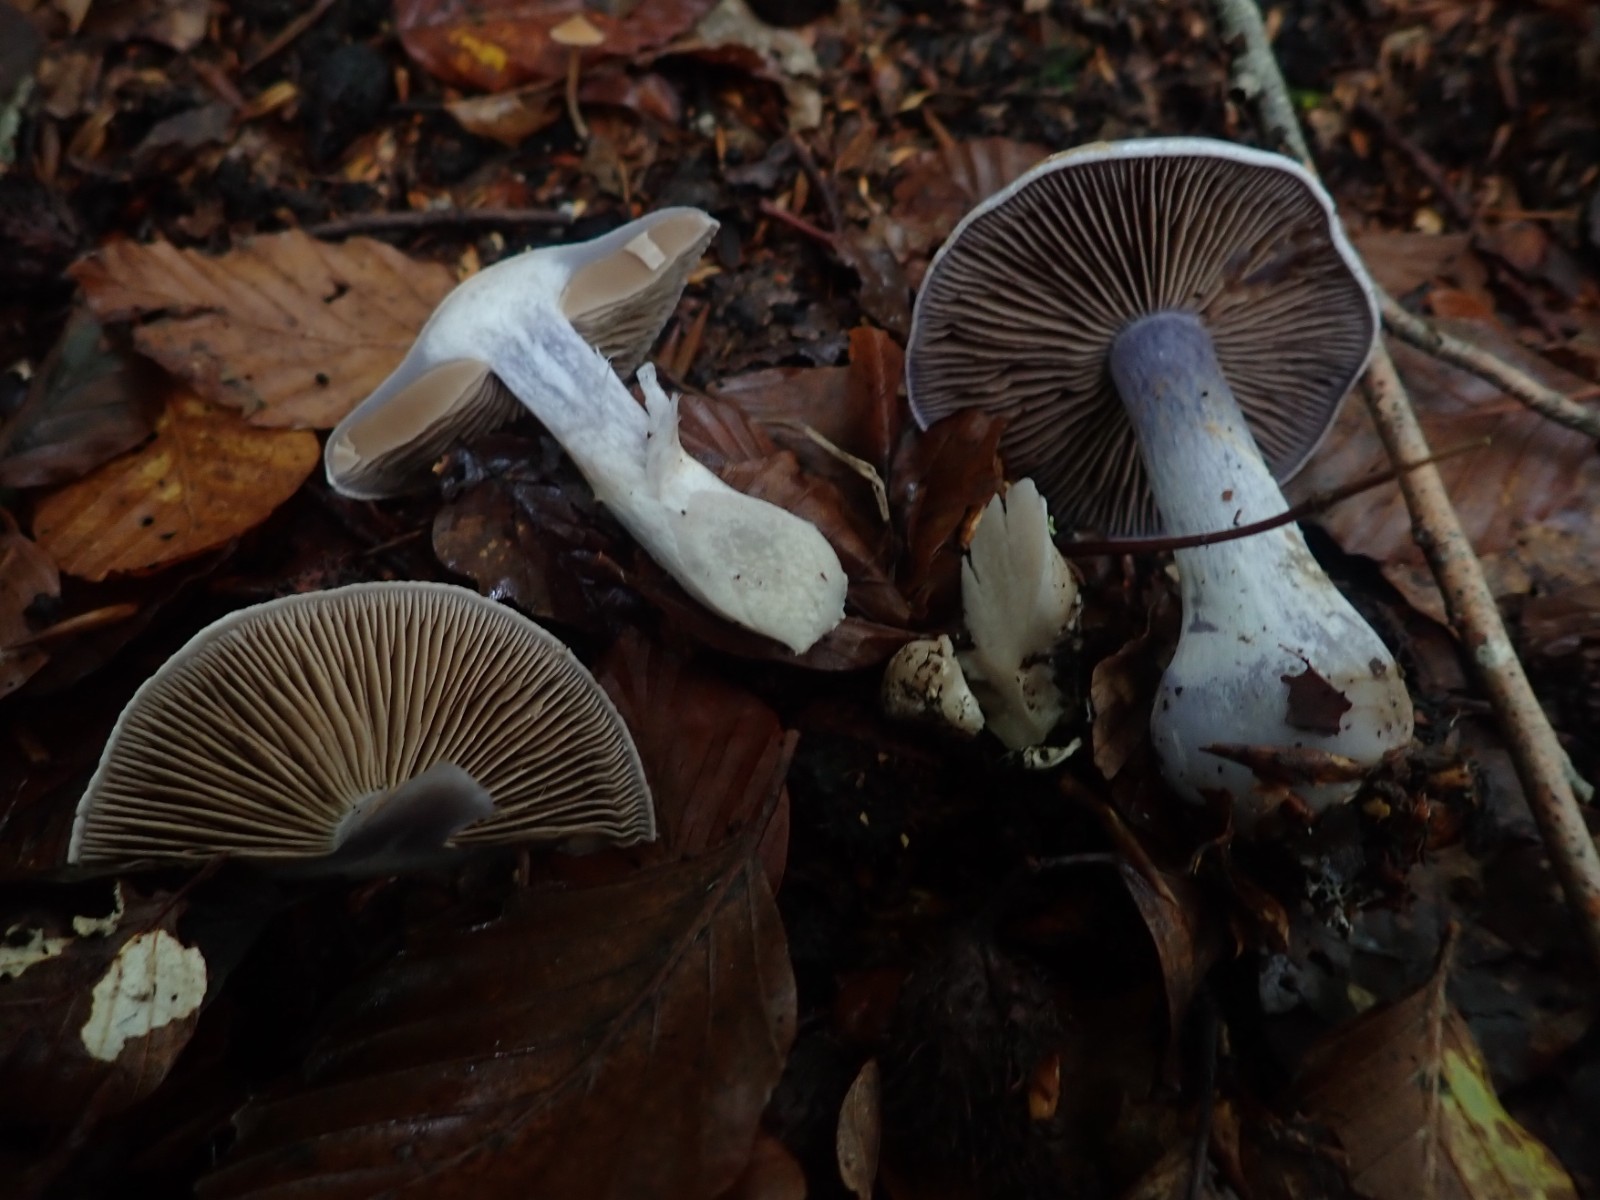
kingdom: Fungi
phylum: Basidiomycota
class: Agaricomycetes
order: Agaricales
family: Cortinariaceae
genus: Cortinarius
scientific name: Cortinarius alboviolaceus
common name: lysviolet slørhat
